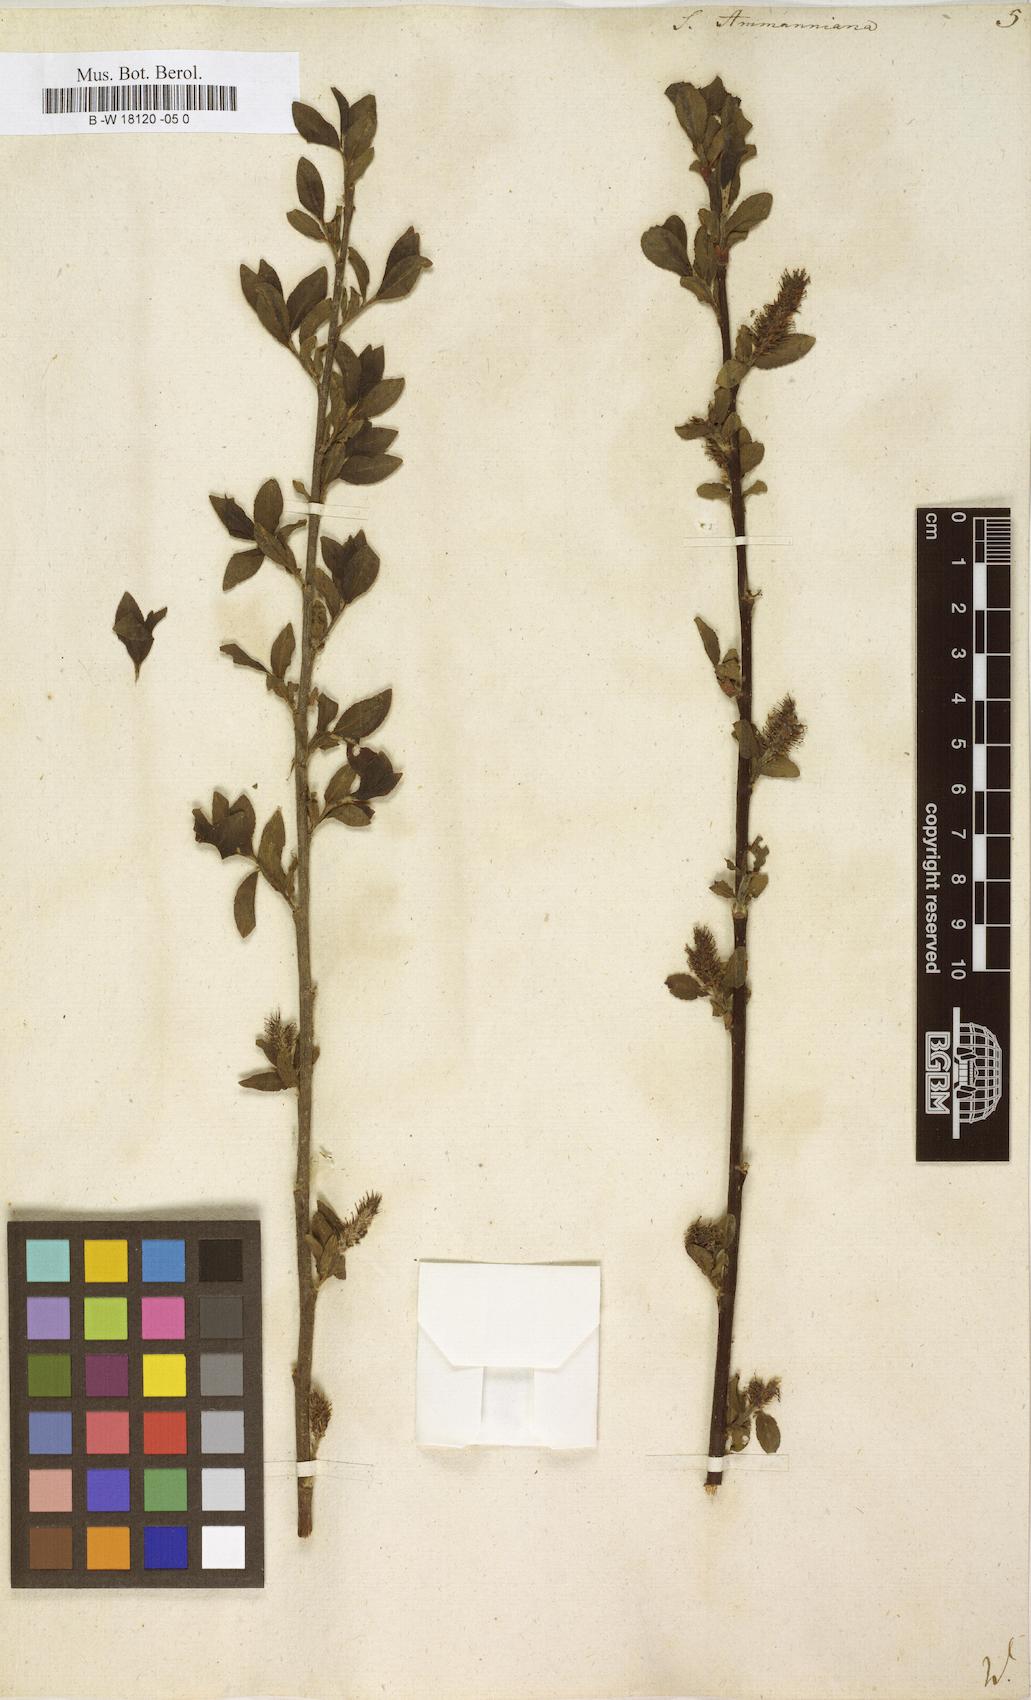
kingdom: Plantae
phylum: Tracheophyta
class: Magnoliopsida
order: Malpighiales
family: Salicaceae
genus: Salix
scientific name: Salix myrsinifolia
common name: Dark-leaved willow
